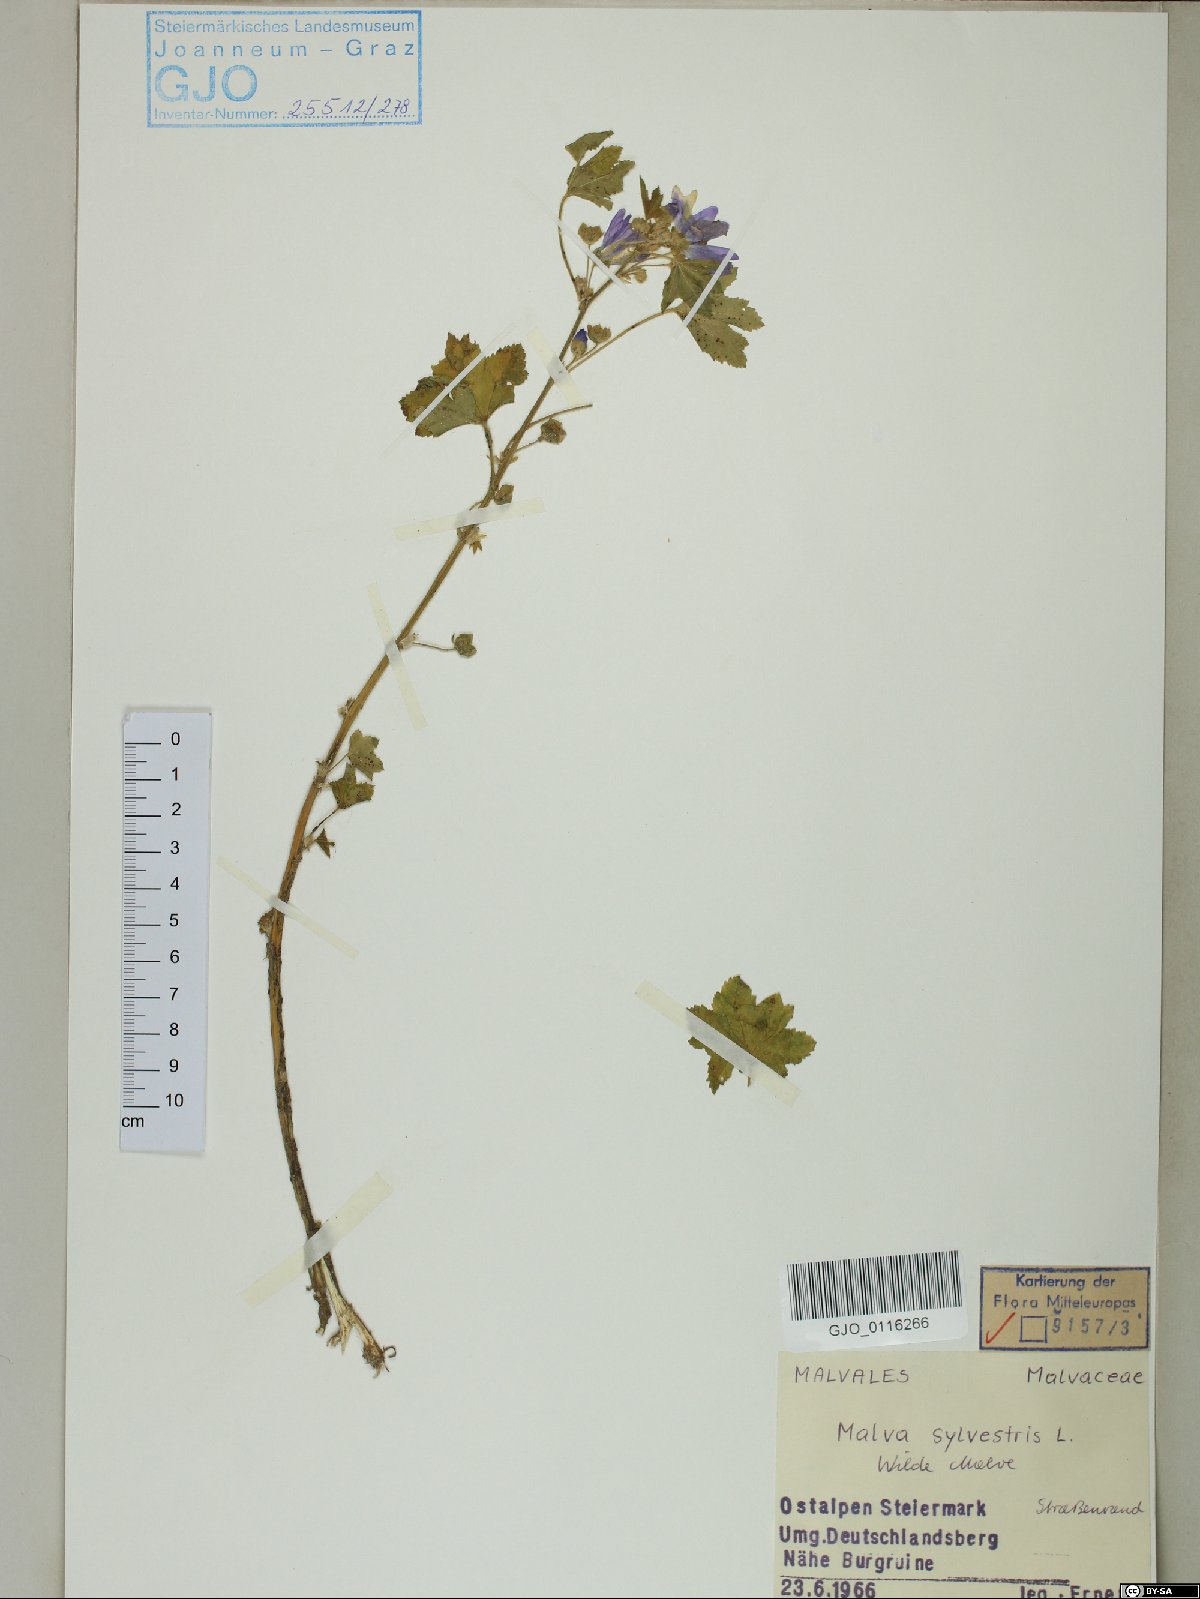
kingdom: Plantae
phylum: Tracheophyta
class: Magnoliopsida
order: Malvales
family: Malvaceae
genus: Malva
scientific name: Malva sylvestris
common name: Common mallow
